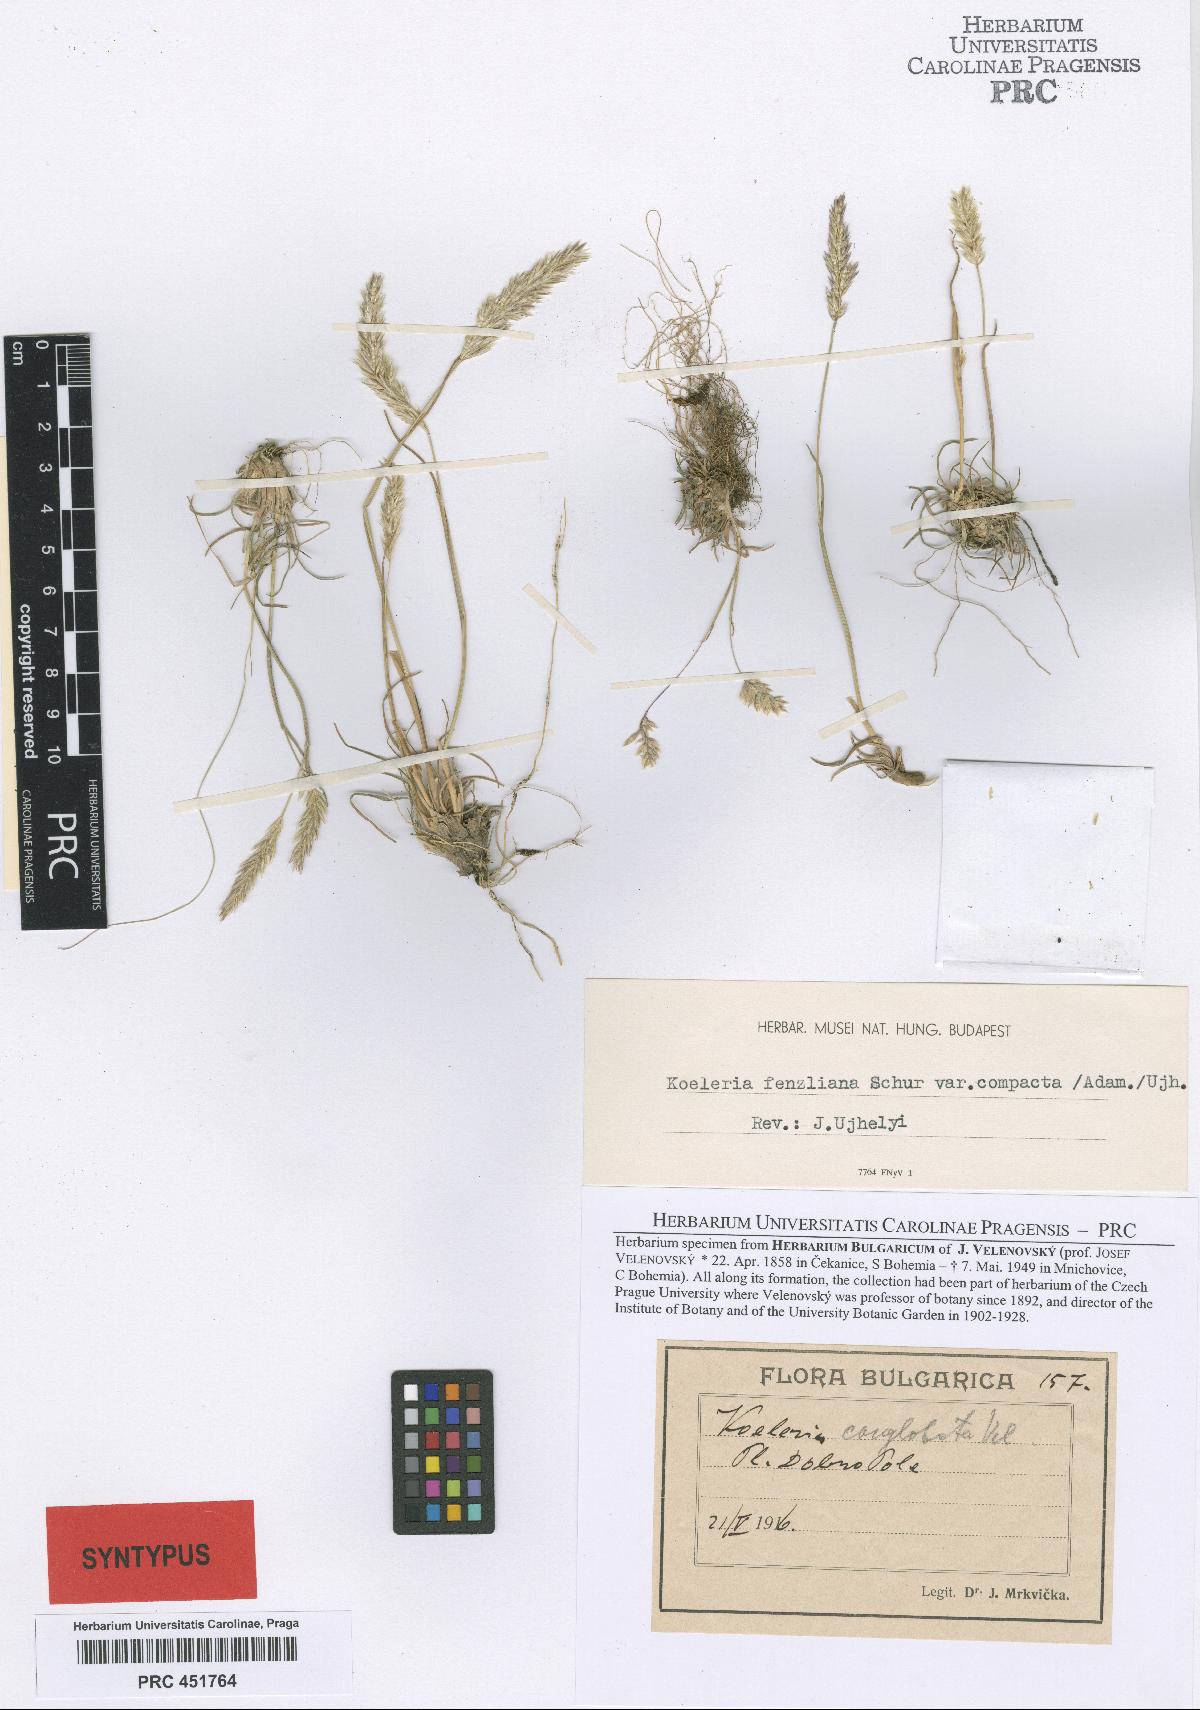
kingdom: Plantae
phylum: Tracheophyta
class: Liliopsida
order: Poales
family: Poaceae
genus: Koeleria
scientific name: Koeleria macrantha
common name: Crested hair-grass
